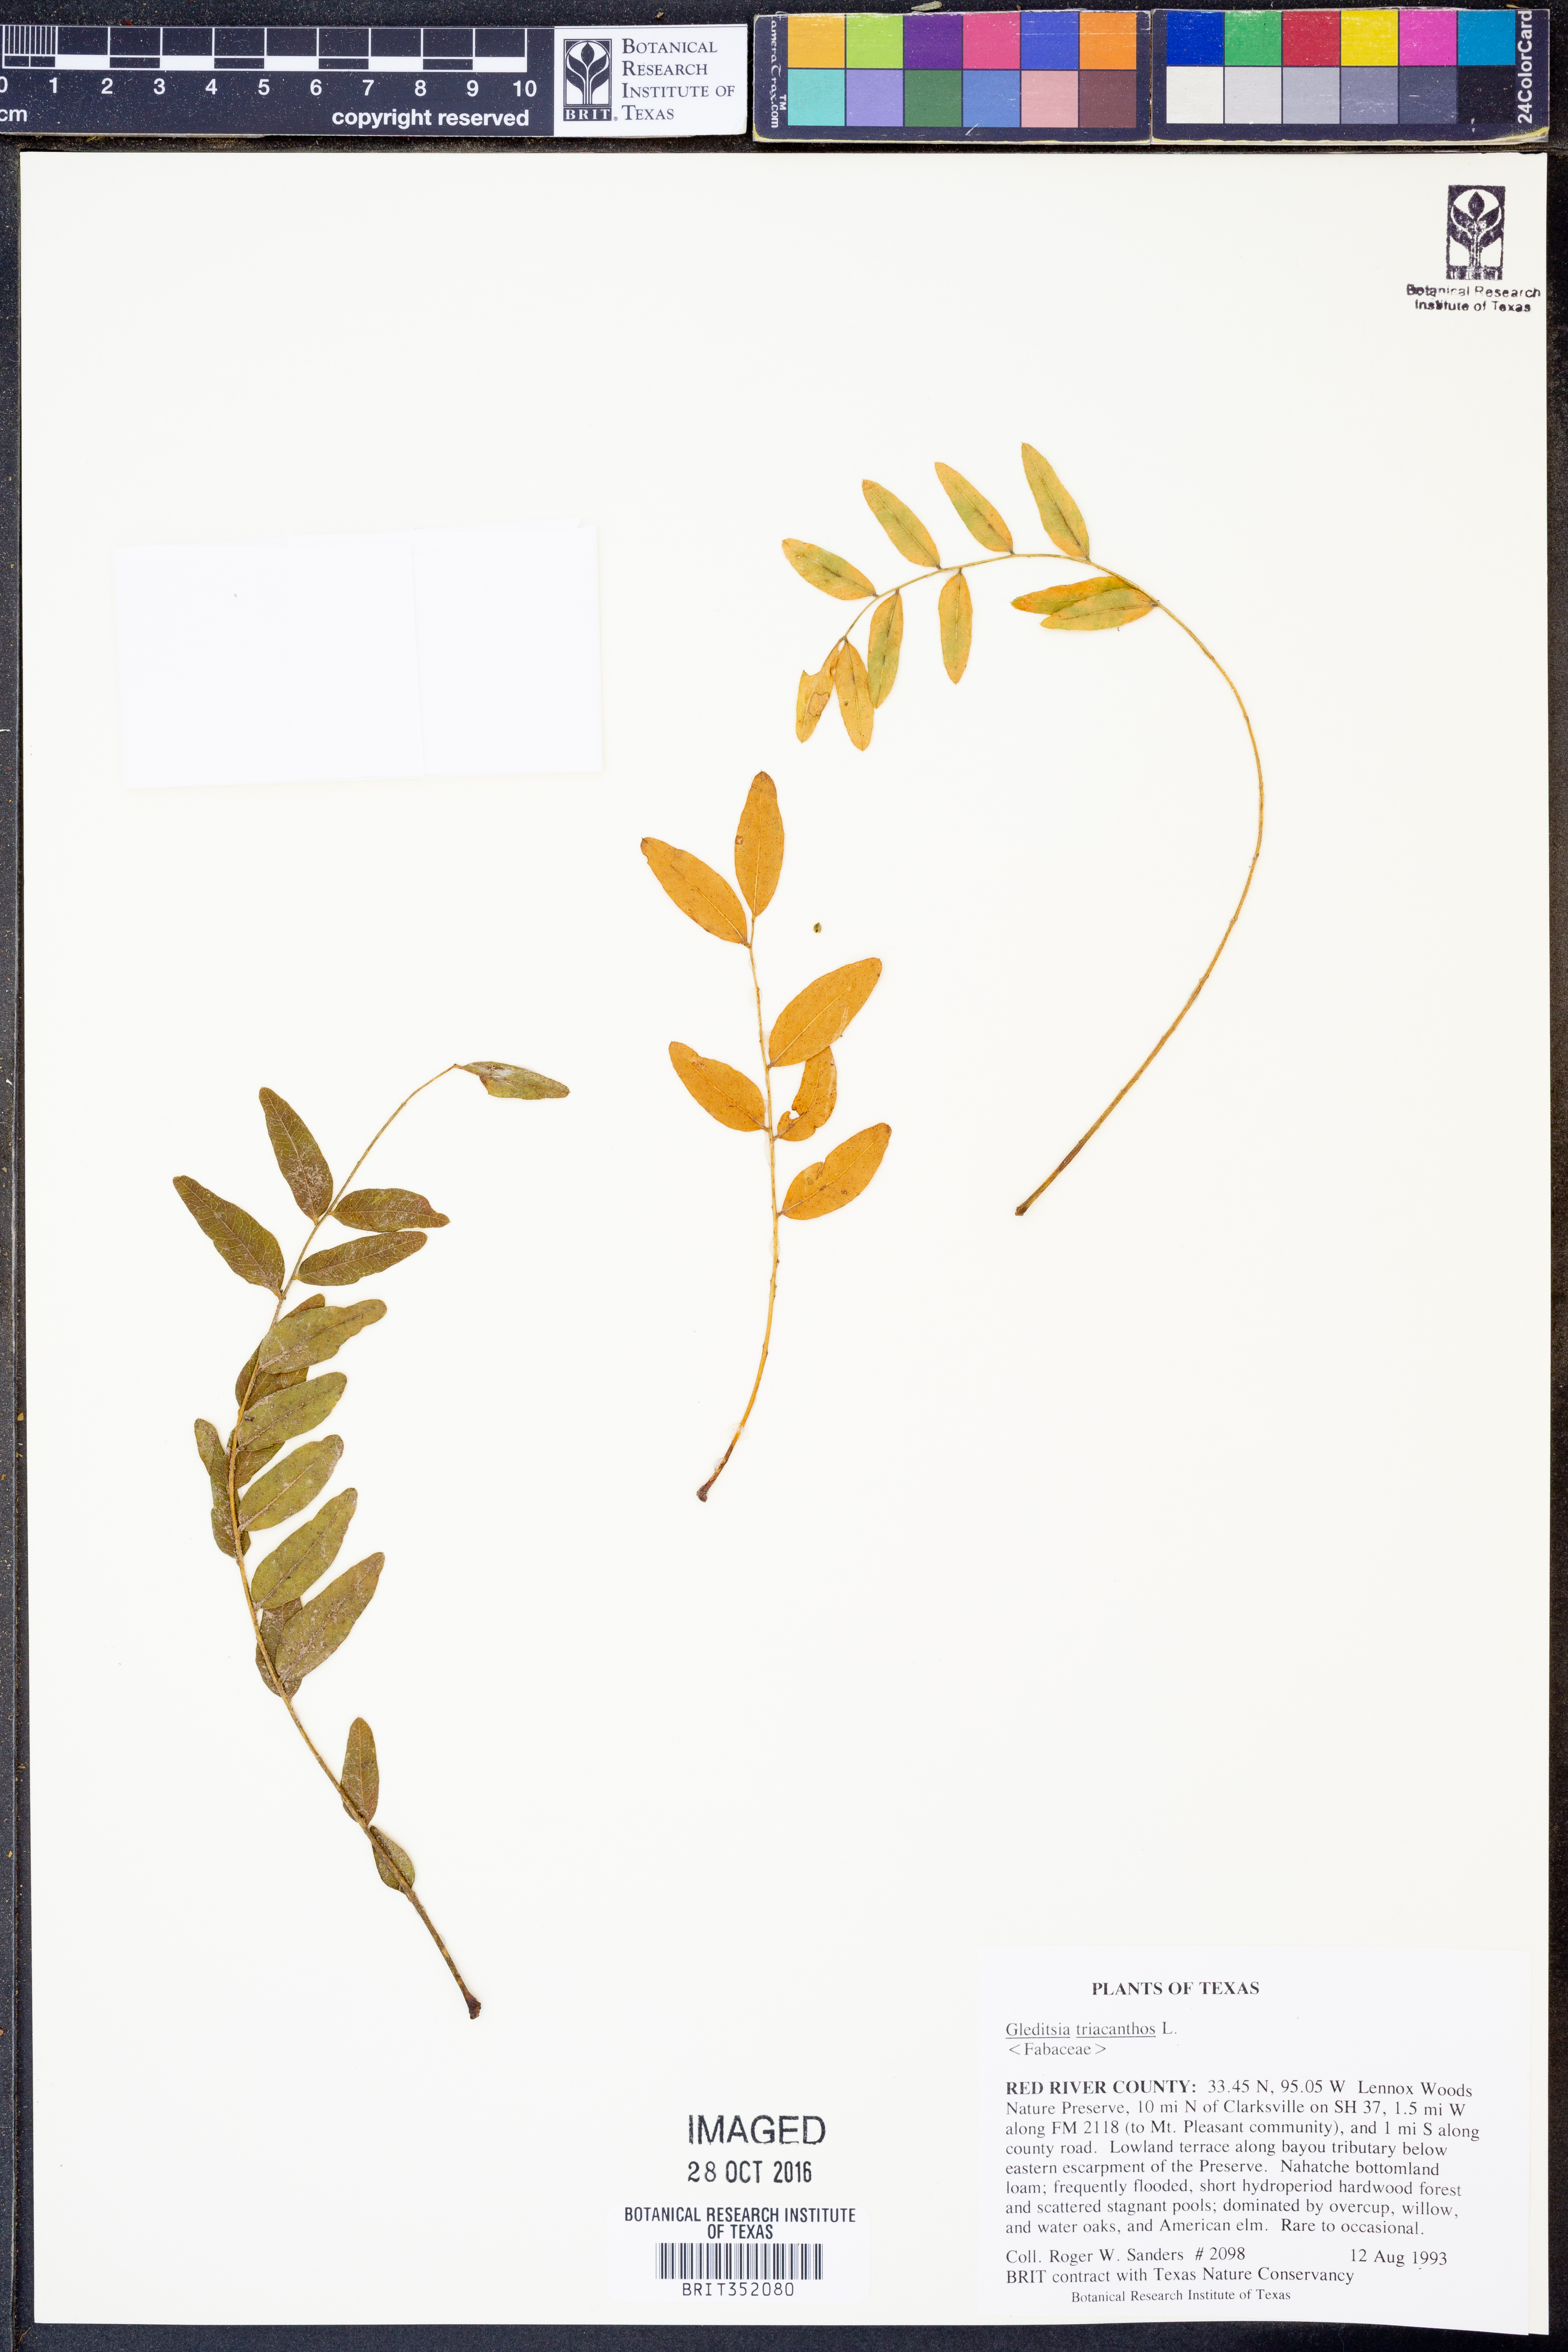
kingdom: Plantae
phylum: Tracheophyta
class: Magnoliopsida
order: Fabales
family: Fabaceae
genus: Gleditsia
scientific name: Gleditsia triacanthos
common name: Common honeylocust
